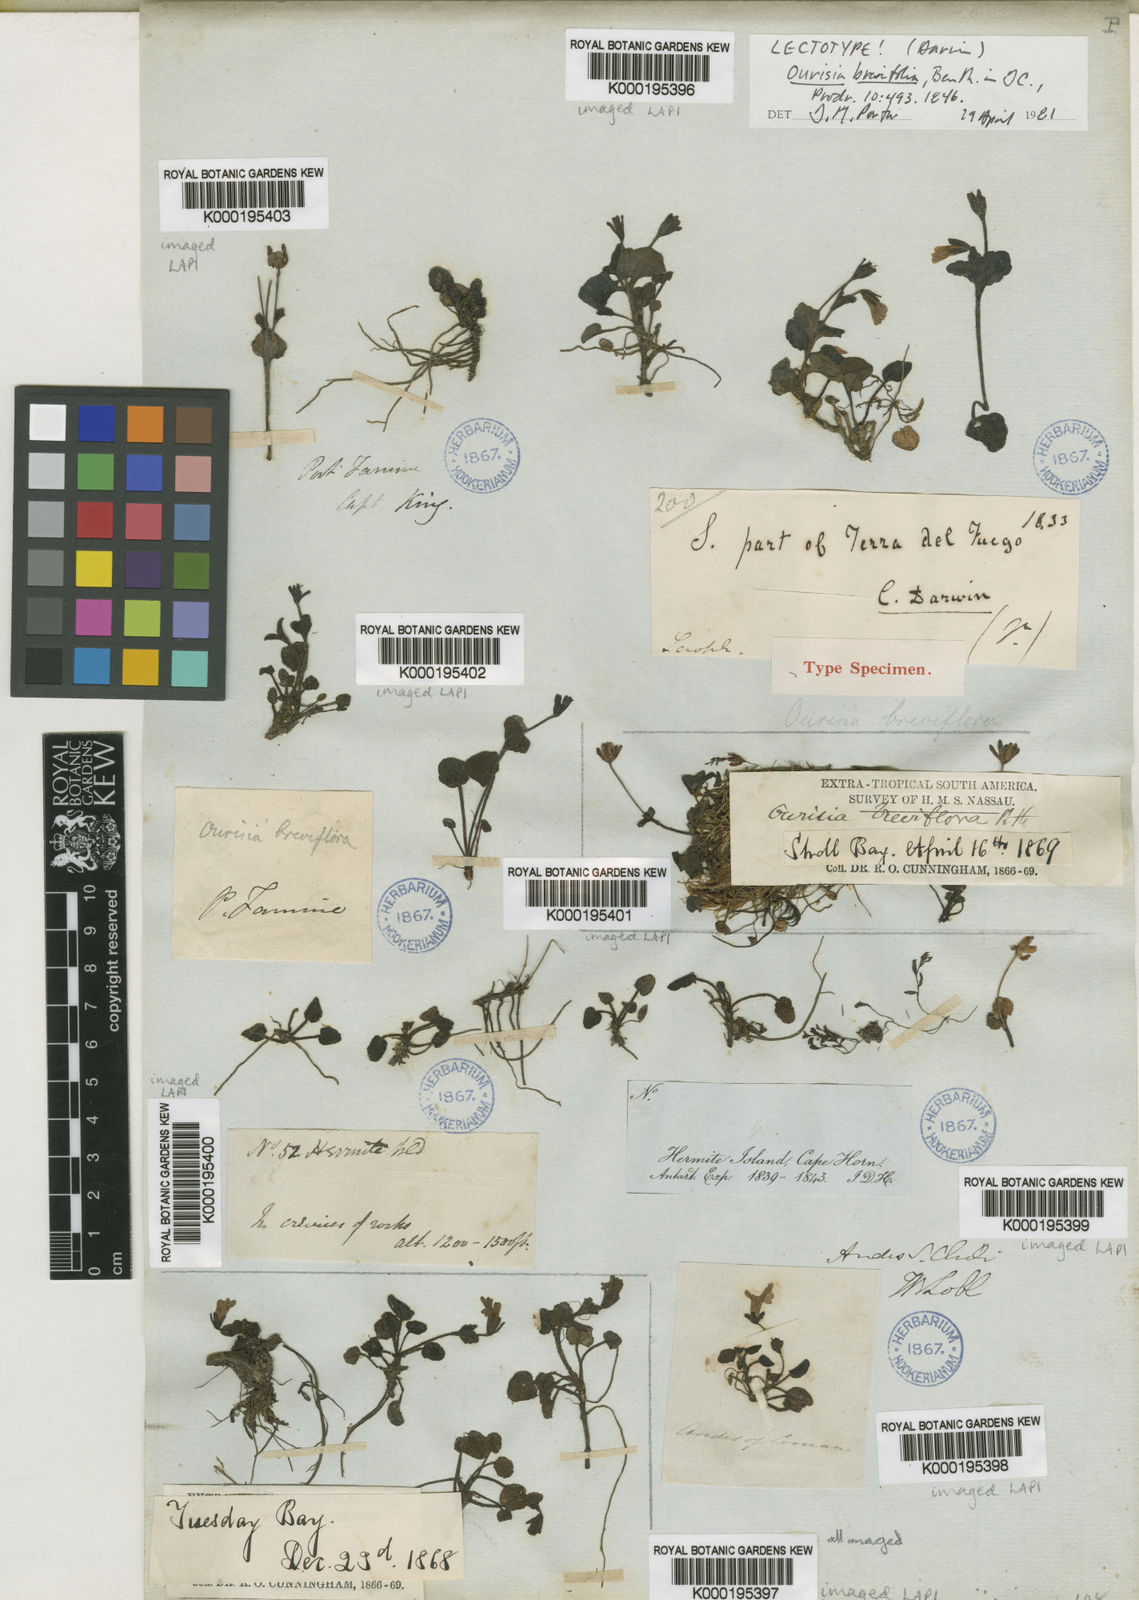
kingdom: Plantae
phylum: Tracheophyta
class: Magnoliopsida
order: Lamiales
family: Plantaginaceae
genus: Ourisia
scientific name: Ourisia breviflora
